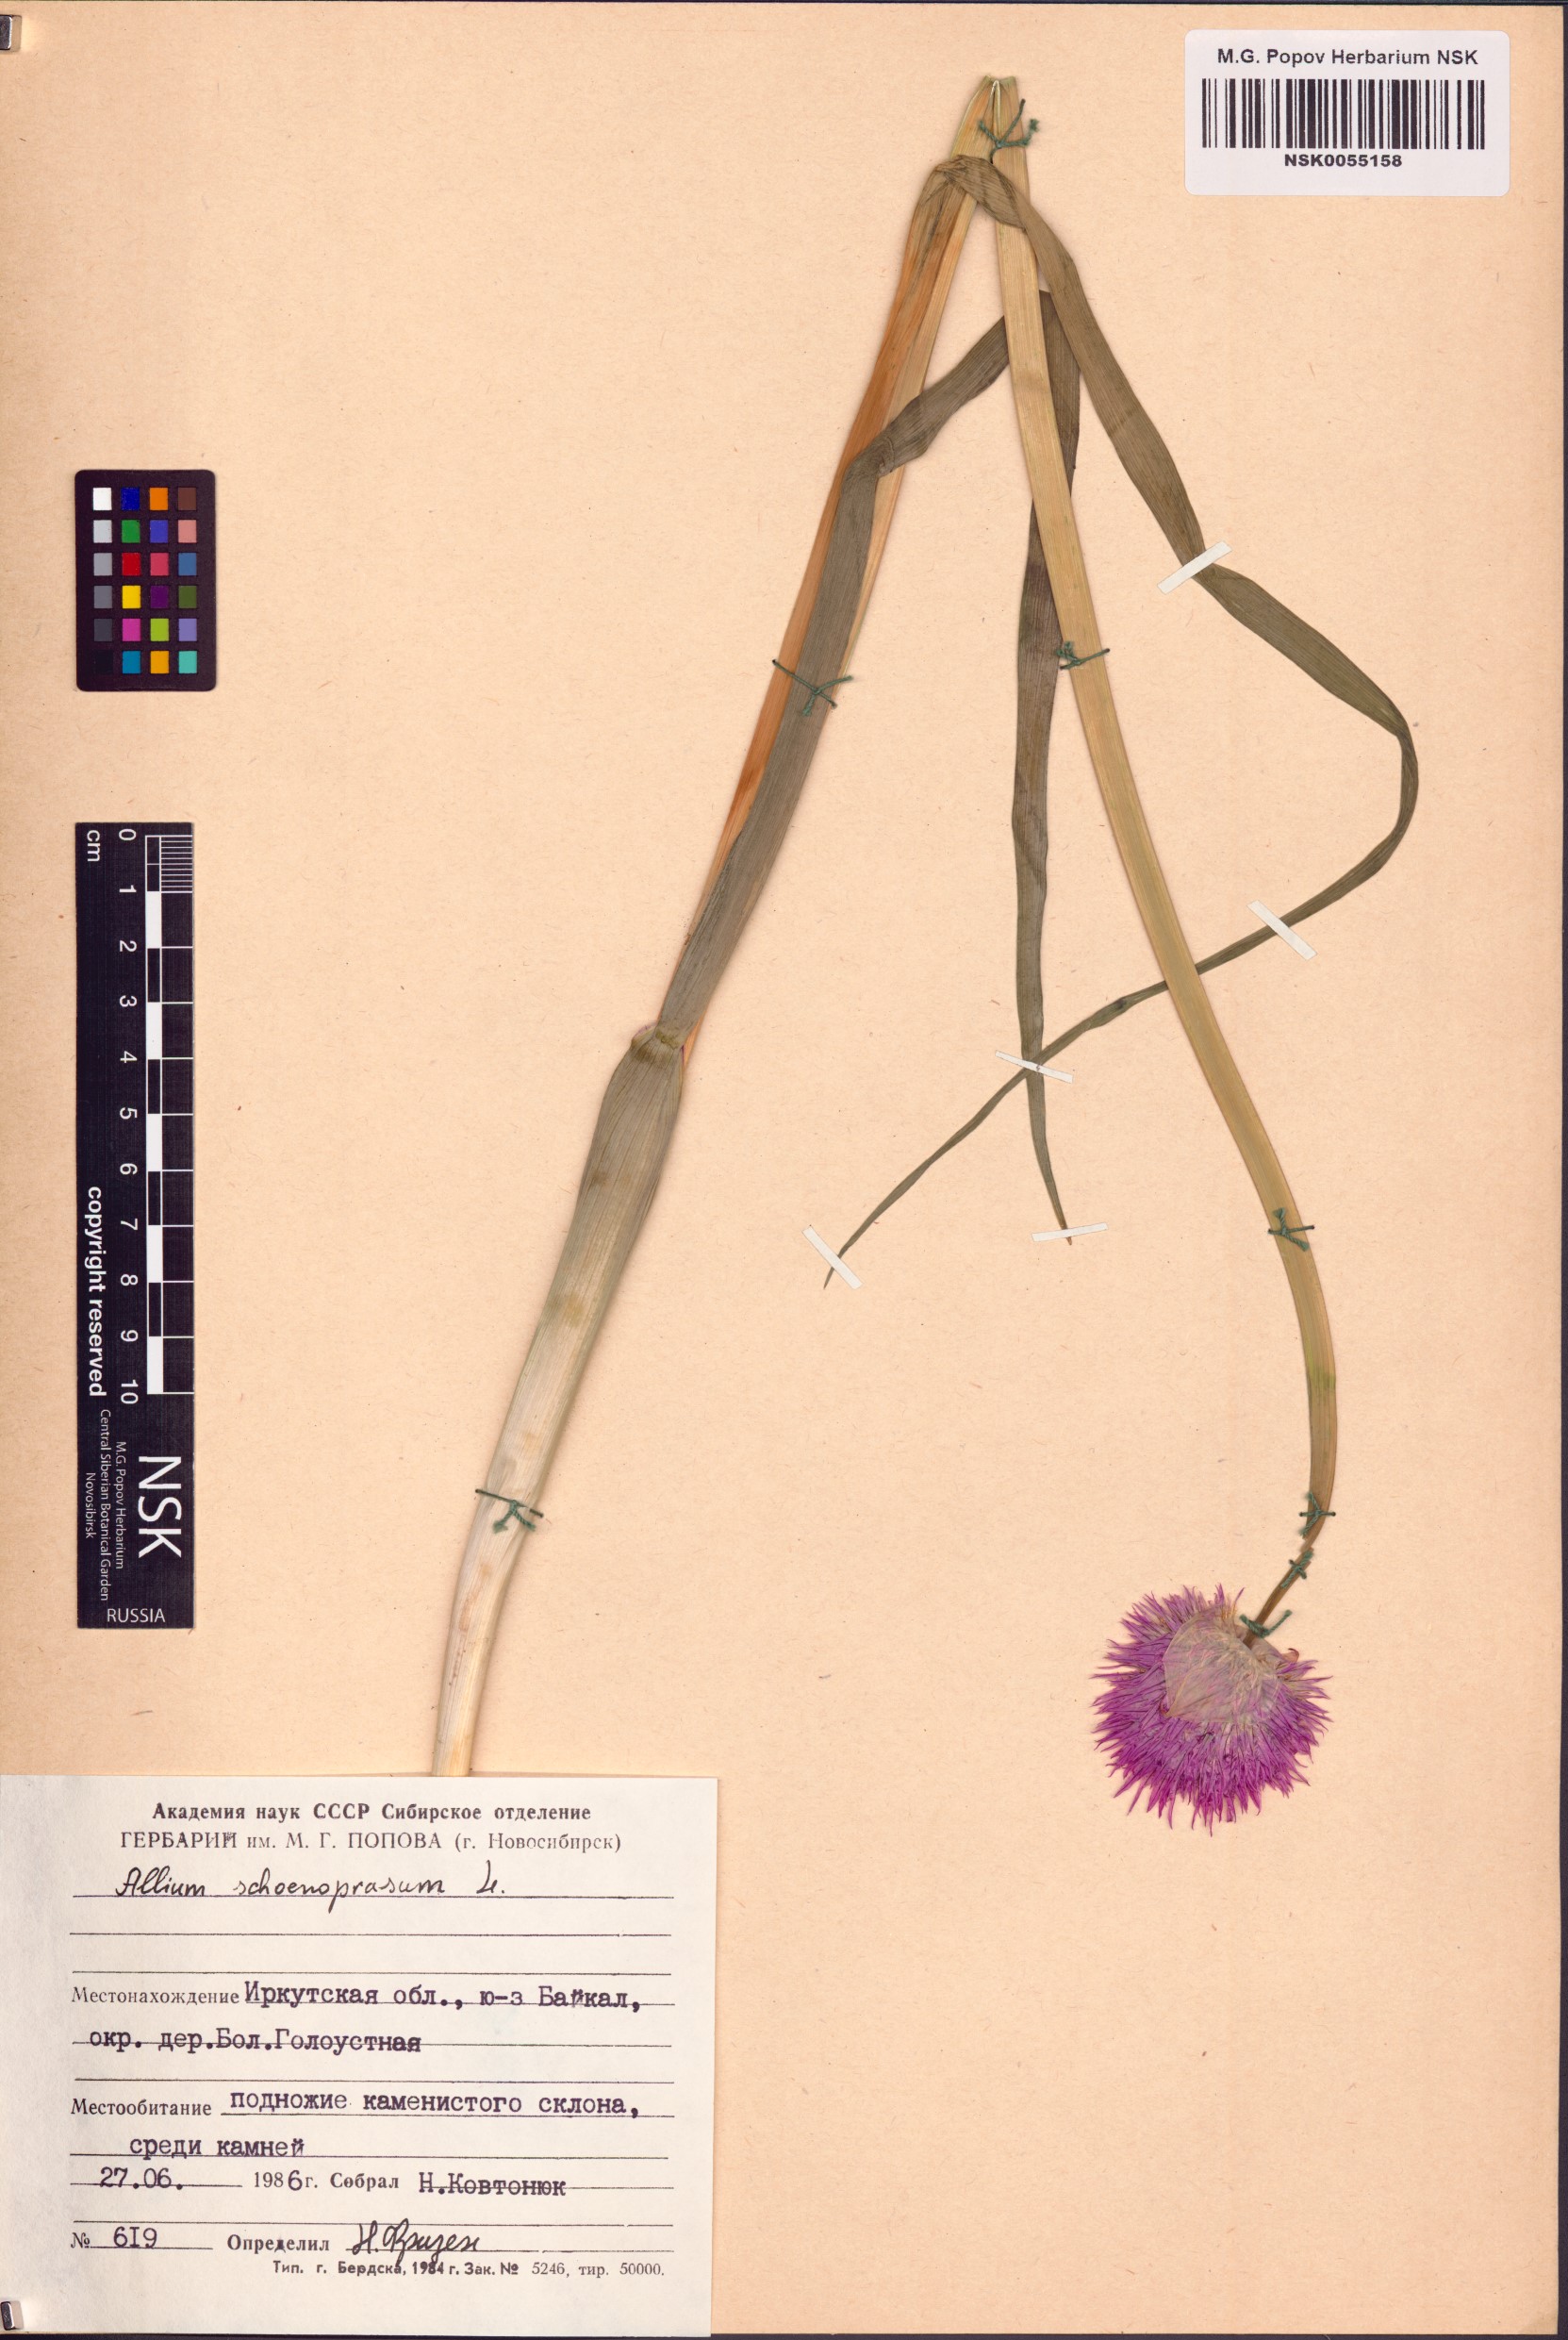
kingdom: Plantae
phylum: Tracheophyta
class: Liliopsida
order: Asparagales
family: Amaryllidaceae
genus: Allium
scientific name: Allium schoenoprasum
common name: Chives
